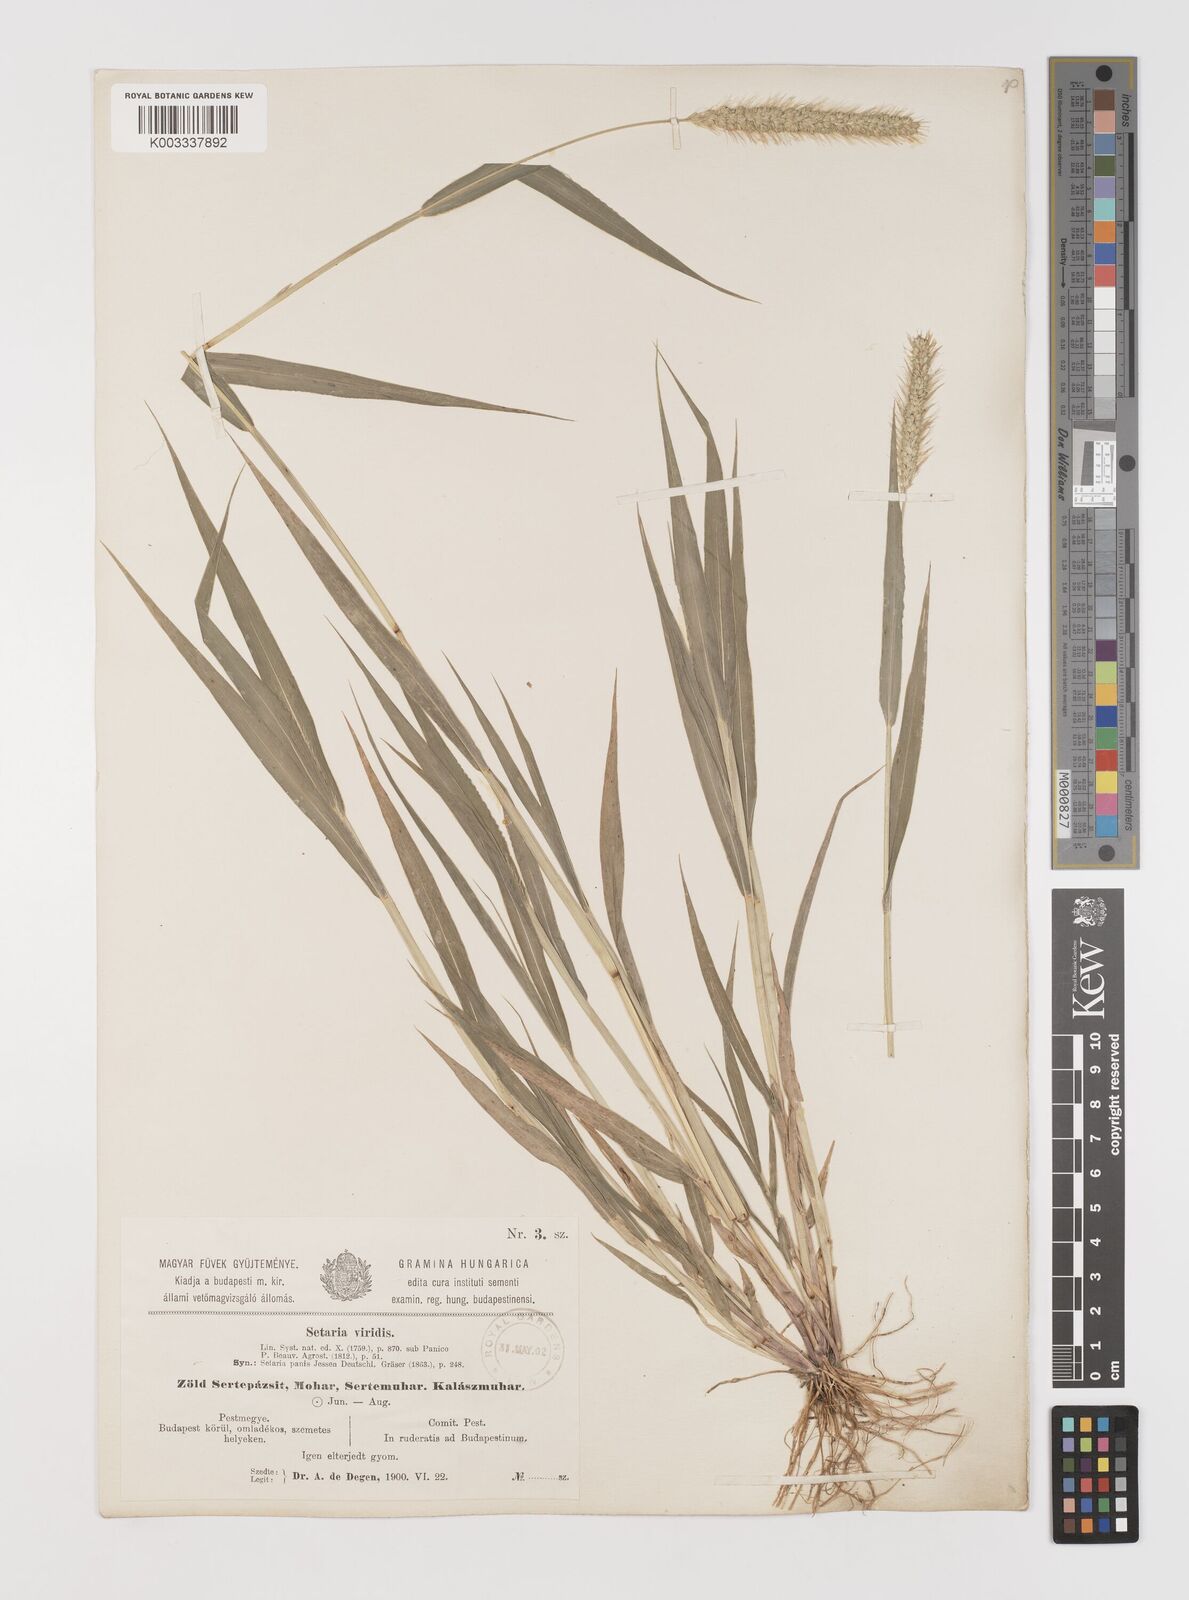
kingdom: Plantae
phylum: Tracheophyta
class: Liliopsida
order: Poales
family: Poaceae
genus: Setaria
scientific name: Setaria viridis
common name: Green bristlegrass
